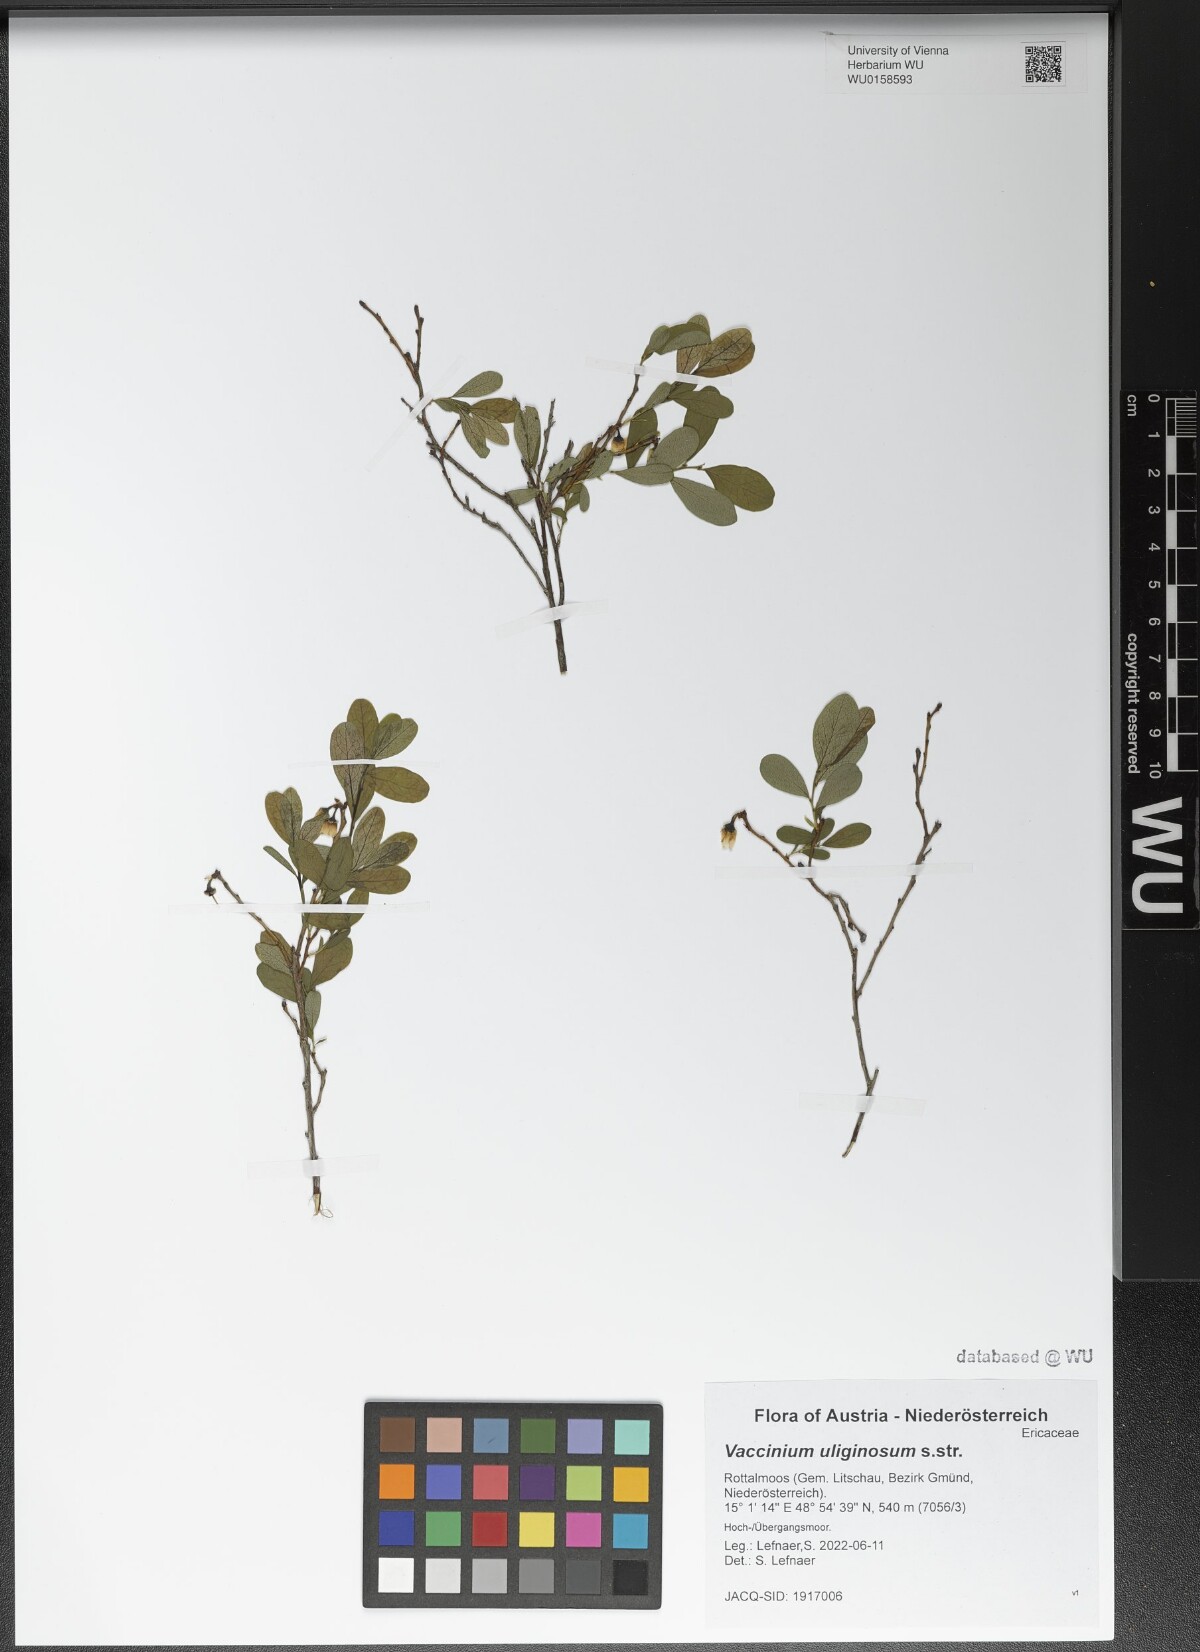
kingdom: Plantae
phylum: Tracheophyta
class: Magnoliopsida
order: Ericales
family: Ericaceae
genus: Vaccinium
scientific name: Vaccinium uliginosum
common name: Bog bilberry
